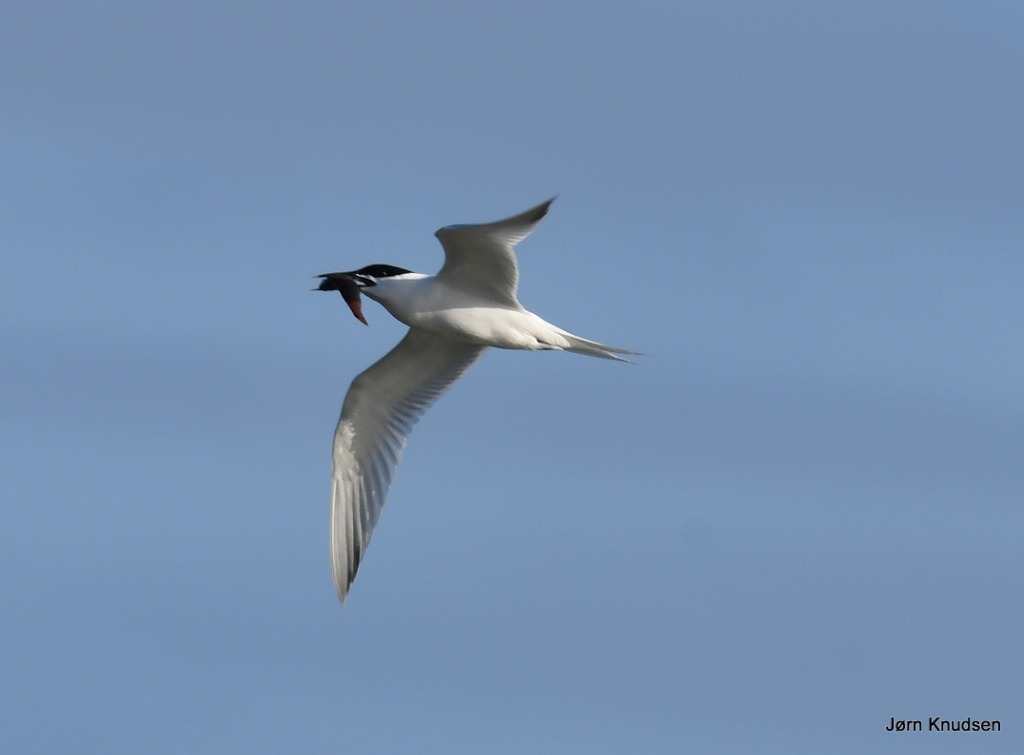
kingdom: Animalia
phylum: Chordata
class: Aves
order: Charadriiformes
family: Laridae
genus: Thalasseus
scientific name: Thalasseus sandvicensis
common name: Splitterne
